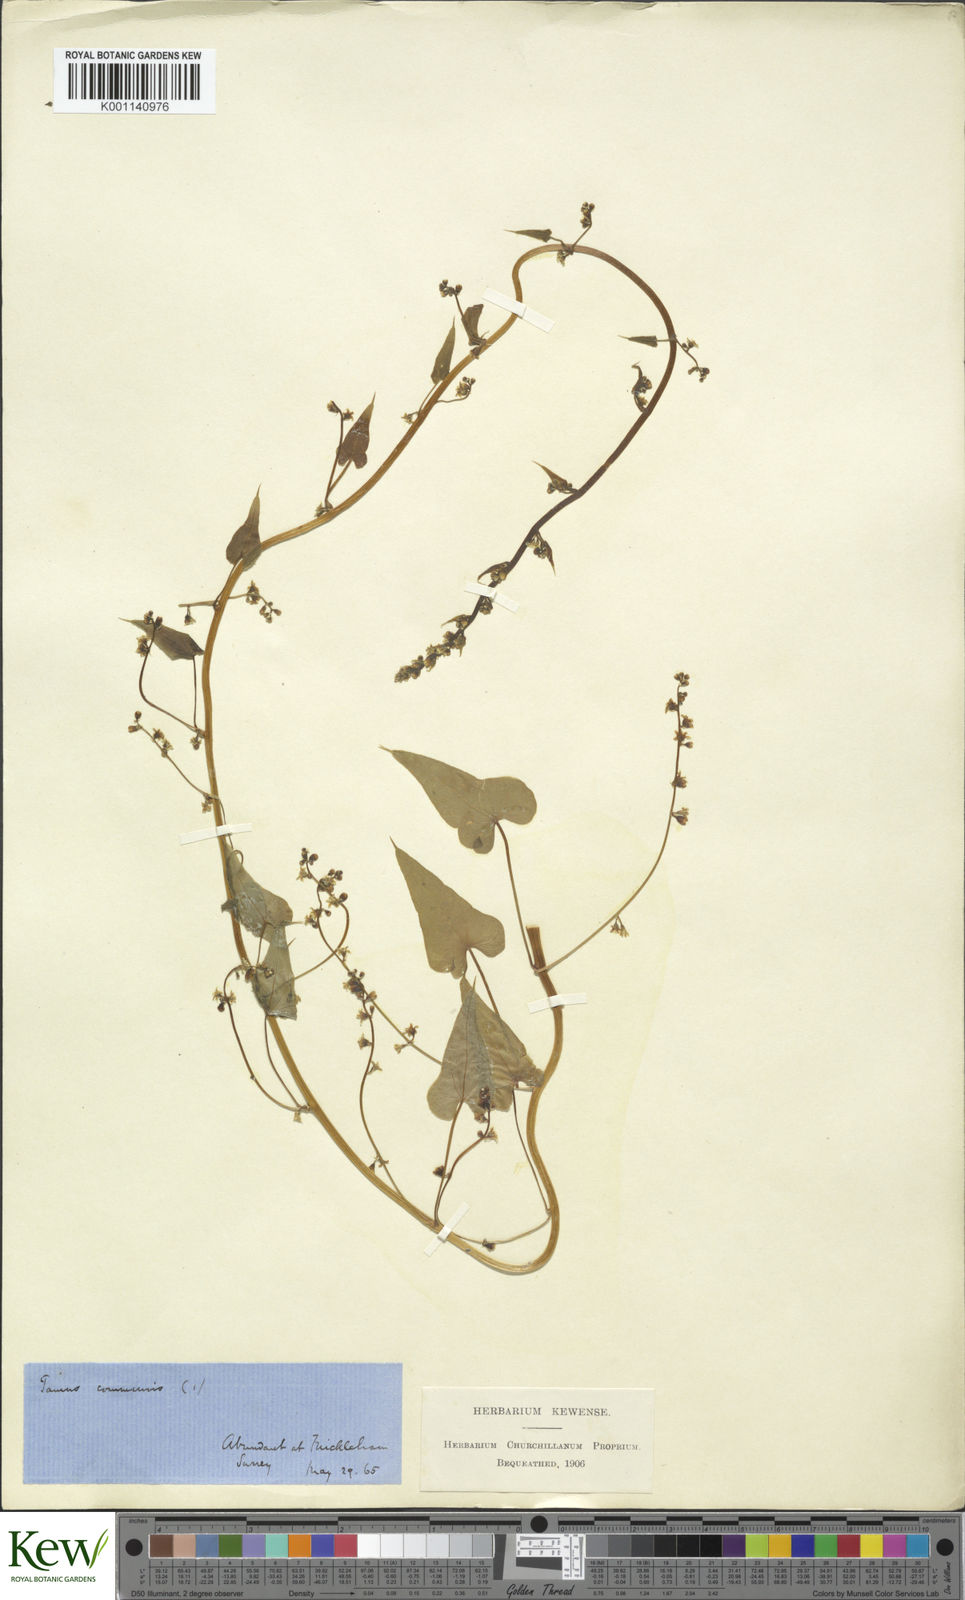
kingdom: Plantae
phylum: Tracheophyta
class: Liliopsida
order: Dioscoreales
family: Dioscoreaceae
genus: Dioscorea
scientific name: Dioscorea communis
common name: Black-bindweed
